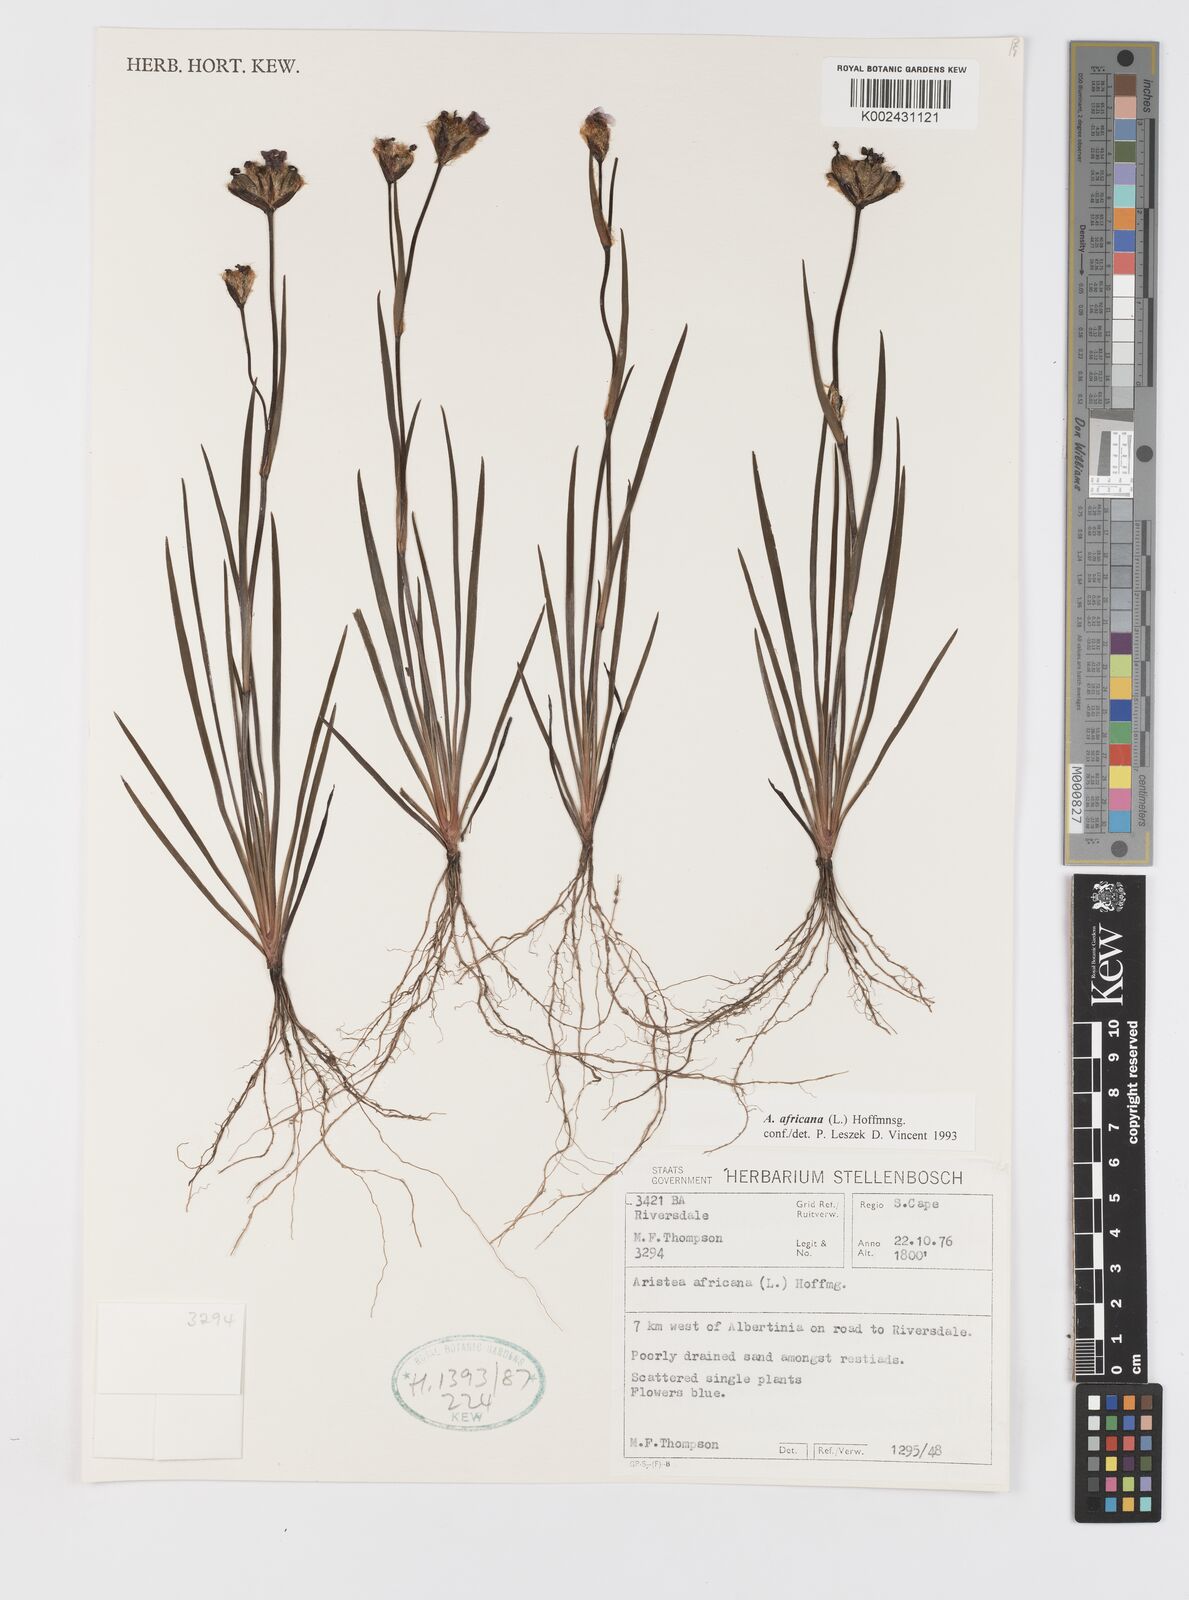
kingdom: Plantae
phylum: Tracheophyta
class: Liliopsida
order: Asparagales
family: Iridaceae
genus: Aristea
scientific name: Aristea africana
